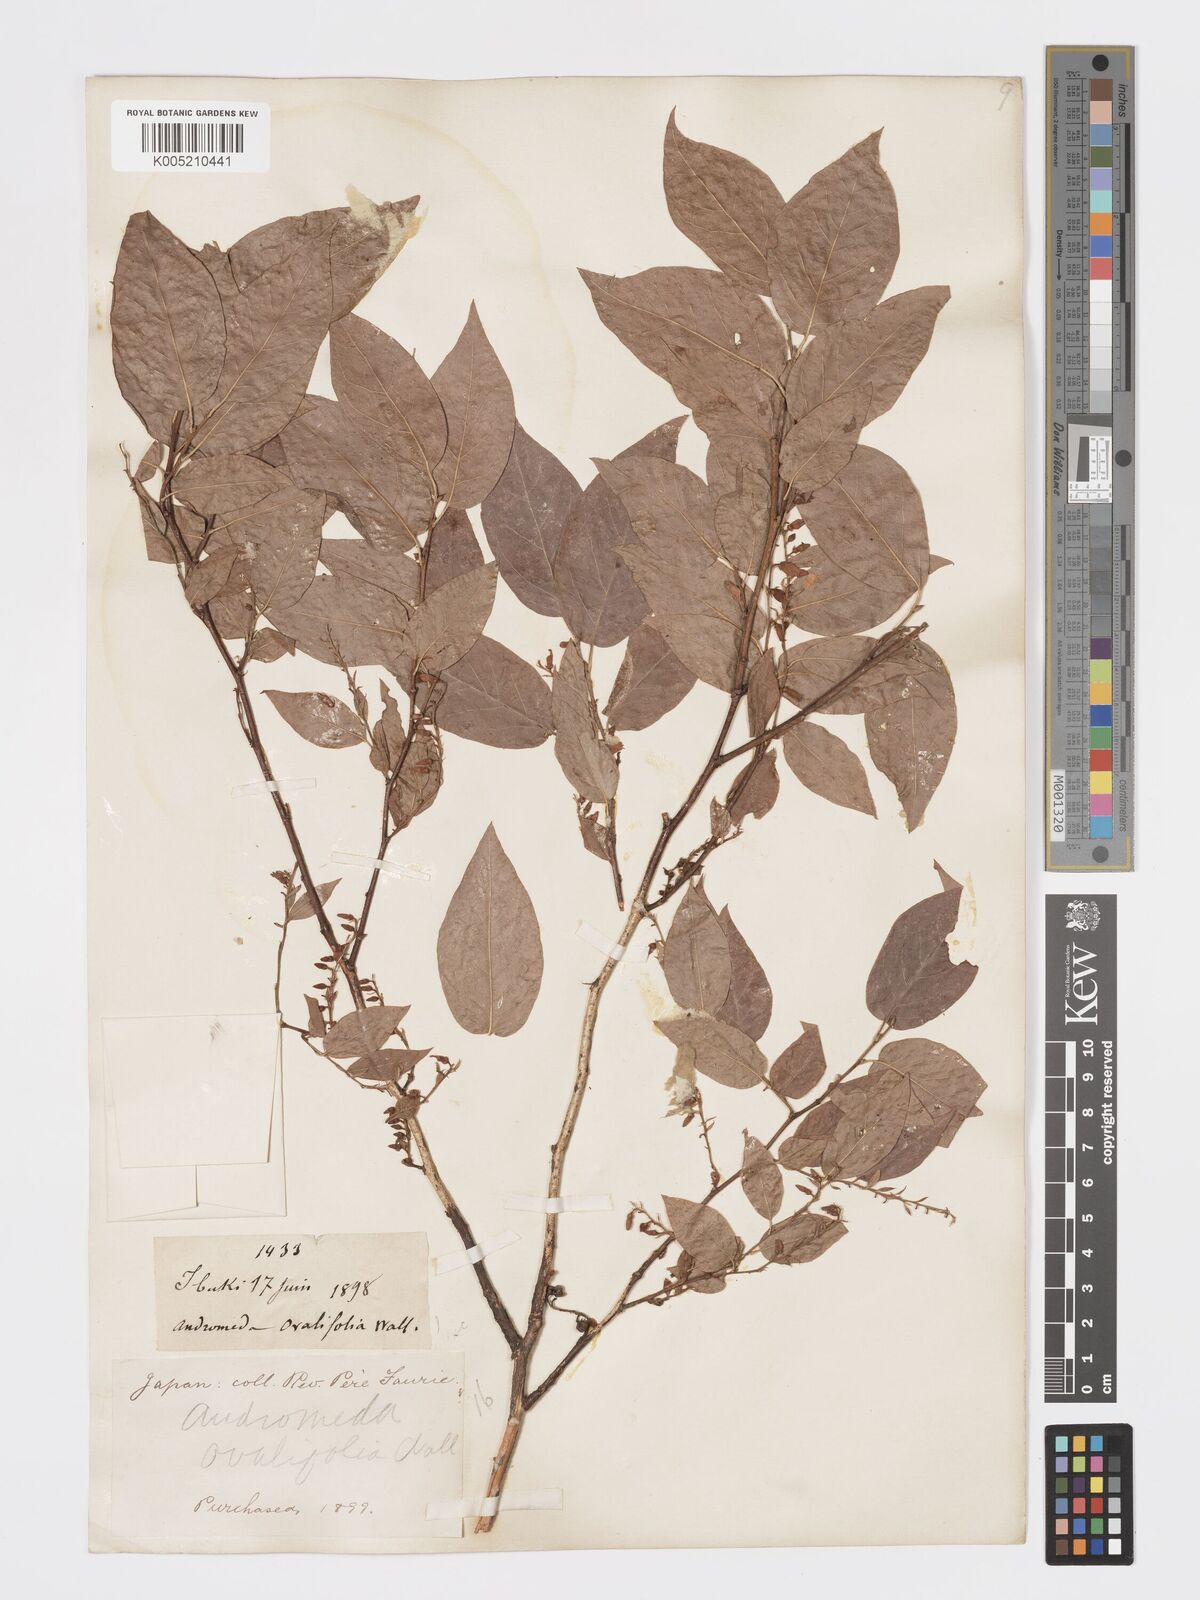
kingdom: Plantae
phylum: Tracheophyta
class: Magnoliopsida
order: Ericales
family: Ericaceae
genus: Lyonia
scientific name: Lyonia elliptica
